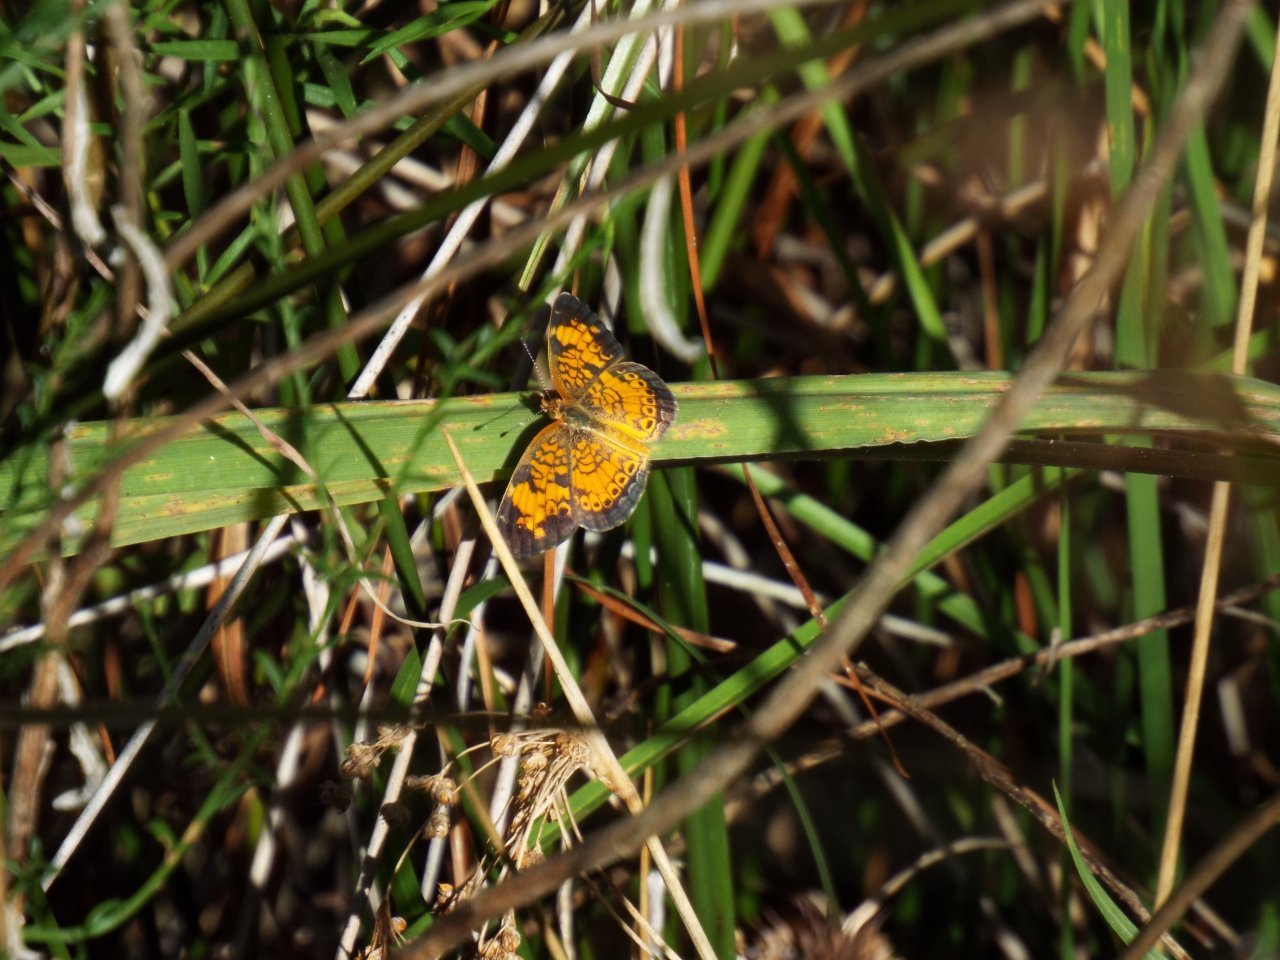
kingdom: Animalia
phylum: Arthropoda
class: Insecta
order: Lepidoptera
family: Nymphalidae
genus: Phyciodes
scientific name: Phyciodes tharos
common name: Pearl Crescent
